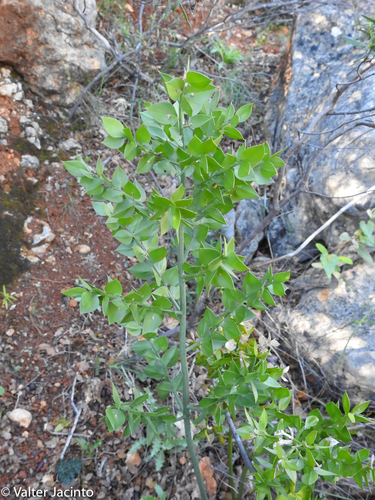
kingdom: Plantae
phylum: Tracheophyta
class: Liliopsida
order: Asparagales
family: Asparagaceae
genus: Ruscus
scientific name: Ruscus aculeatus
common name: Butcher's-broom
